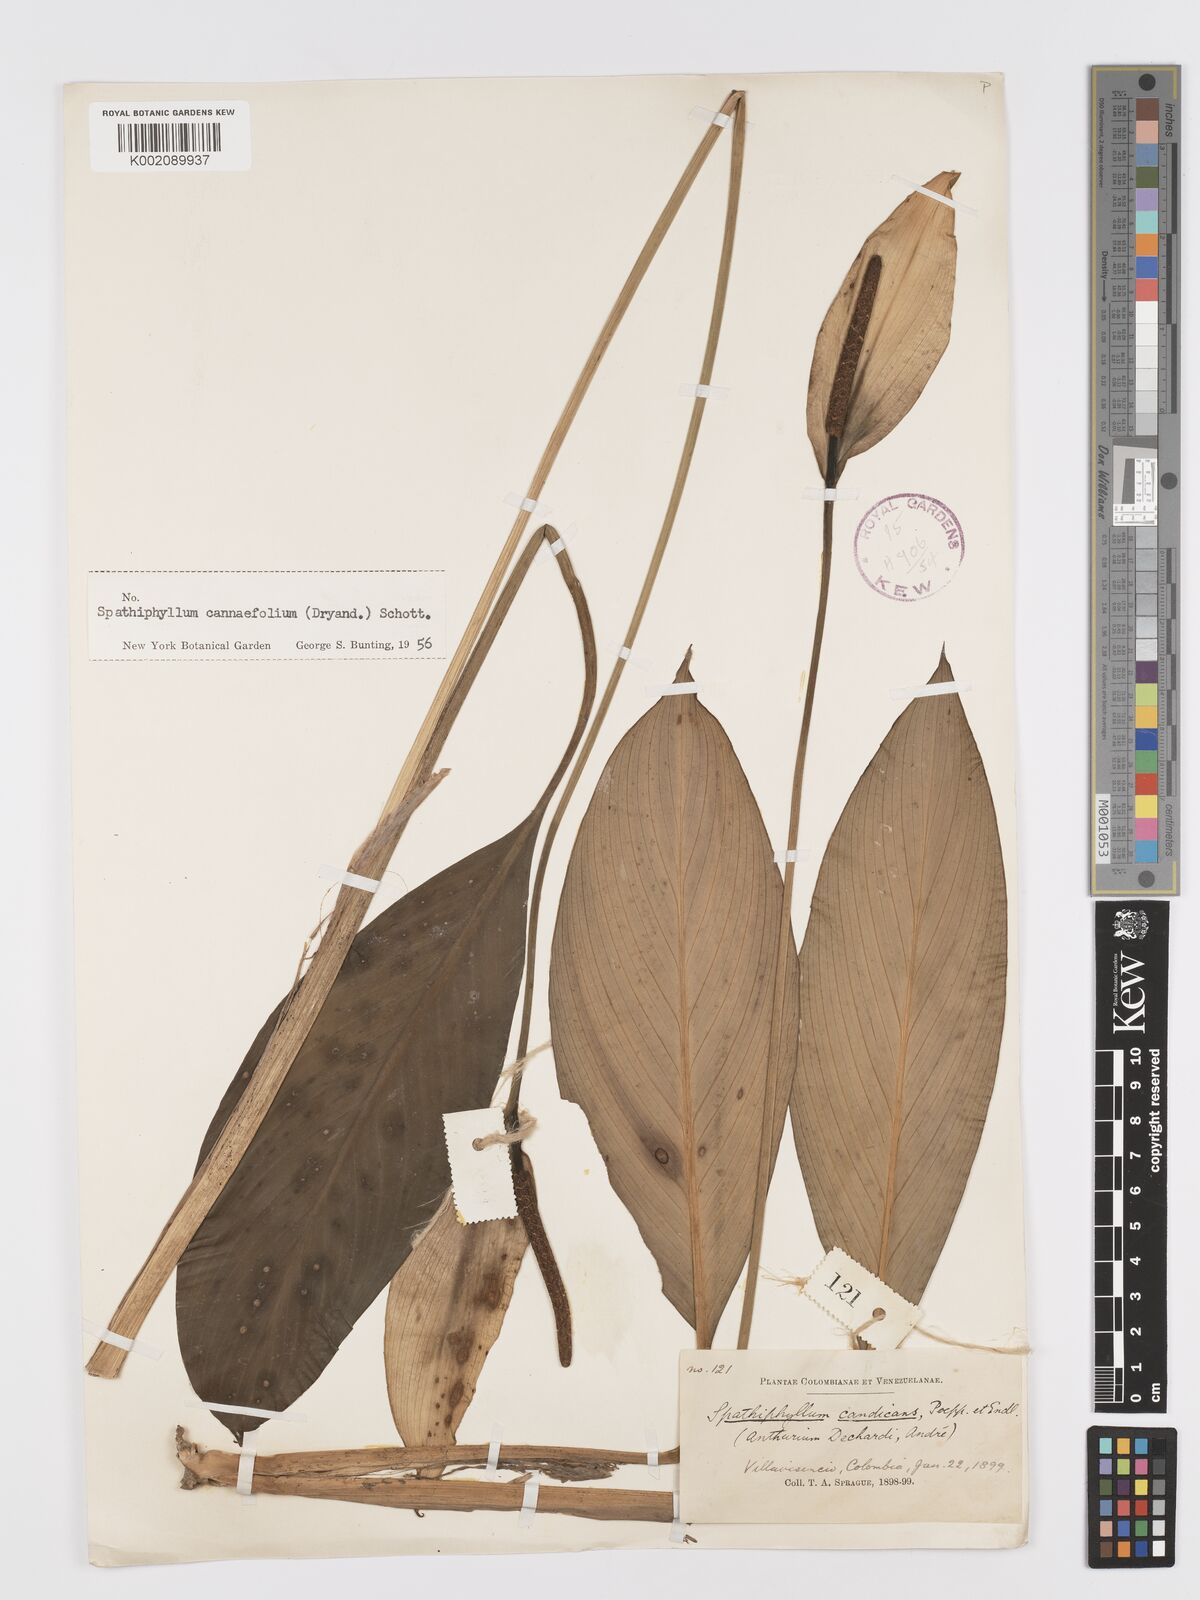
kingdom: Plantae
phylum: Tracheophyta
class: Liliopsida
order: Alismatales
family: Araceae
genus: Spathiphyllum
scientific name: Spathiphyllum cannifolium
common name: Spatheflower
